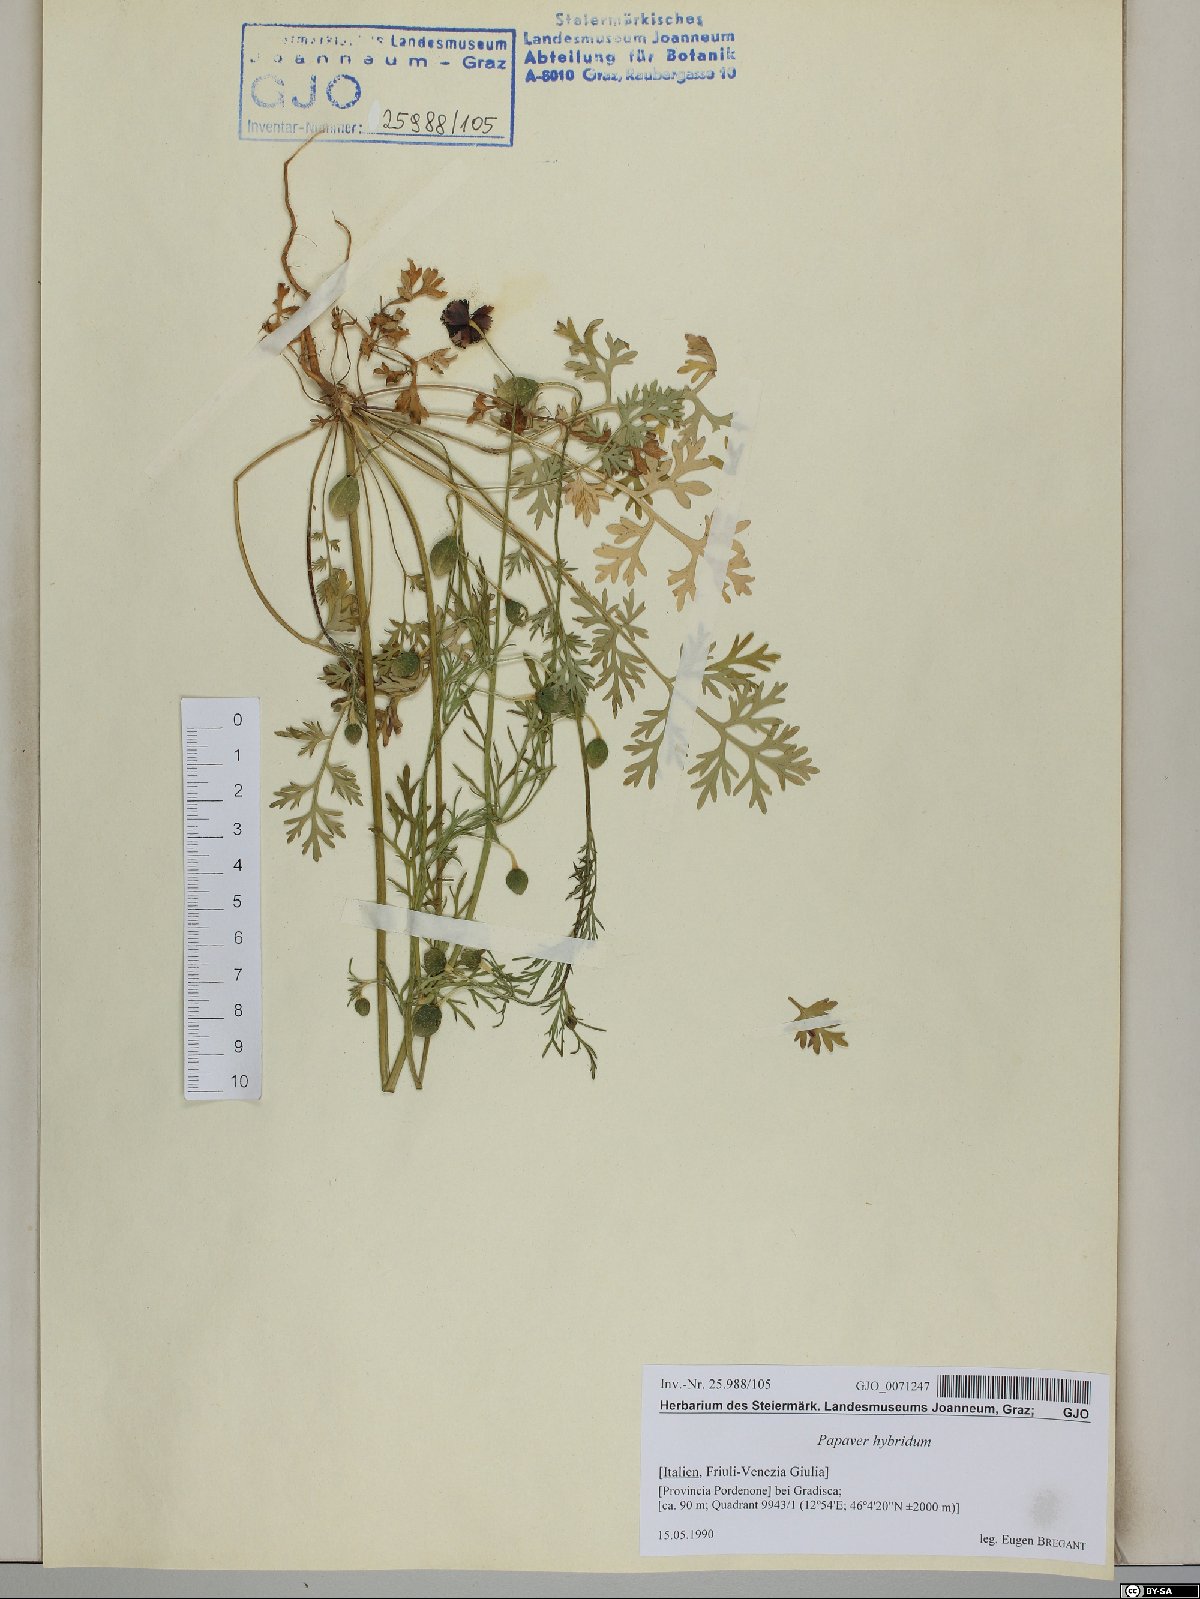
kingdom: Plantae
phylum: Tracheophyta
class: Magnoliopsida
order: Ranunculales
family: Papaveraceae
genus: Roemeria
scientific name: Roemeria hispida
